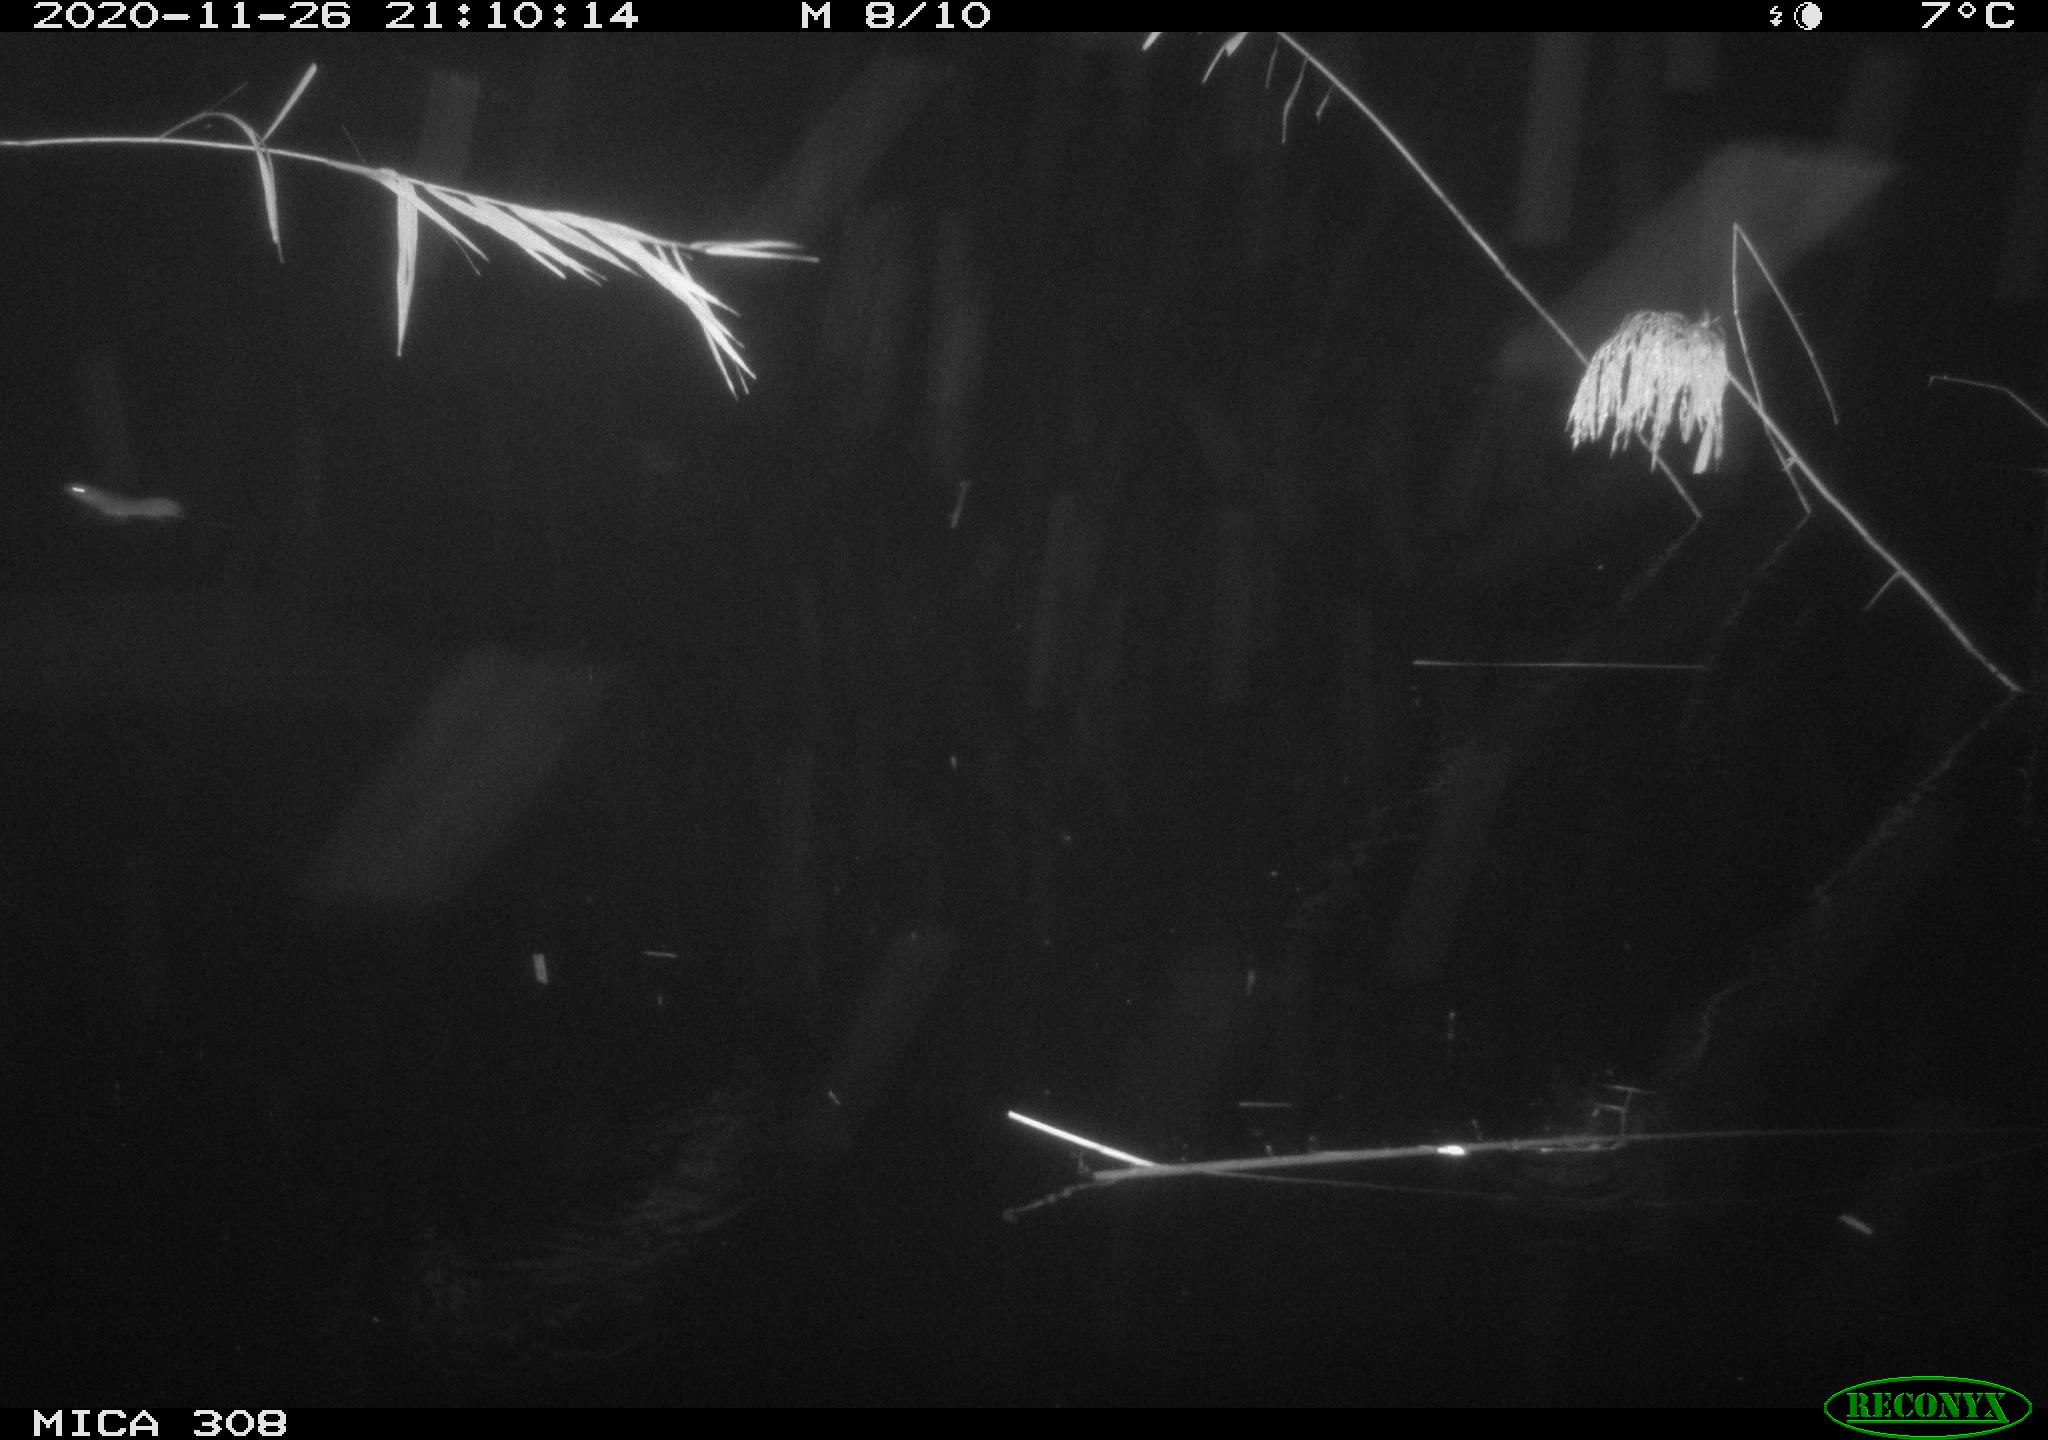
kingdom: Animalia
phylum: Chordata
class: Mammalia
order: Rodentia
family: Muridae
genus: Rattus
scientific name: Rattus norvegicus
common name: Brown rat
